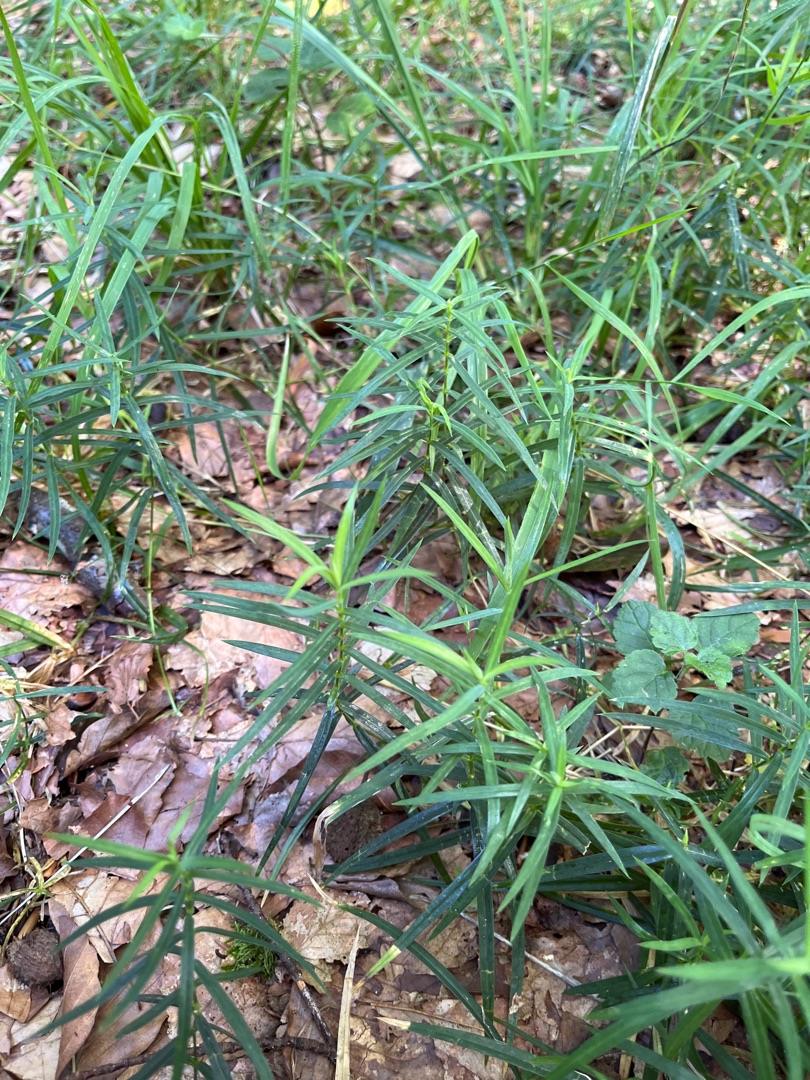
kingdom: Plantae
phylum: Tracheophyta
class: Magnoliopsida
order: Caryophyllales
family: Caryophyllaceae
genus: Rabelera
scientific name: Rabelera holostea
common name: Stor fladstjerne
